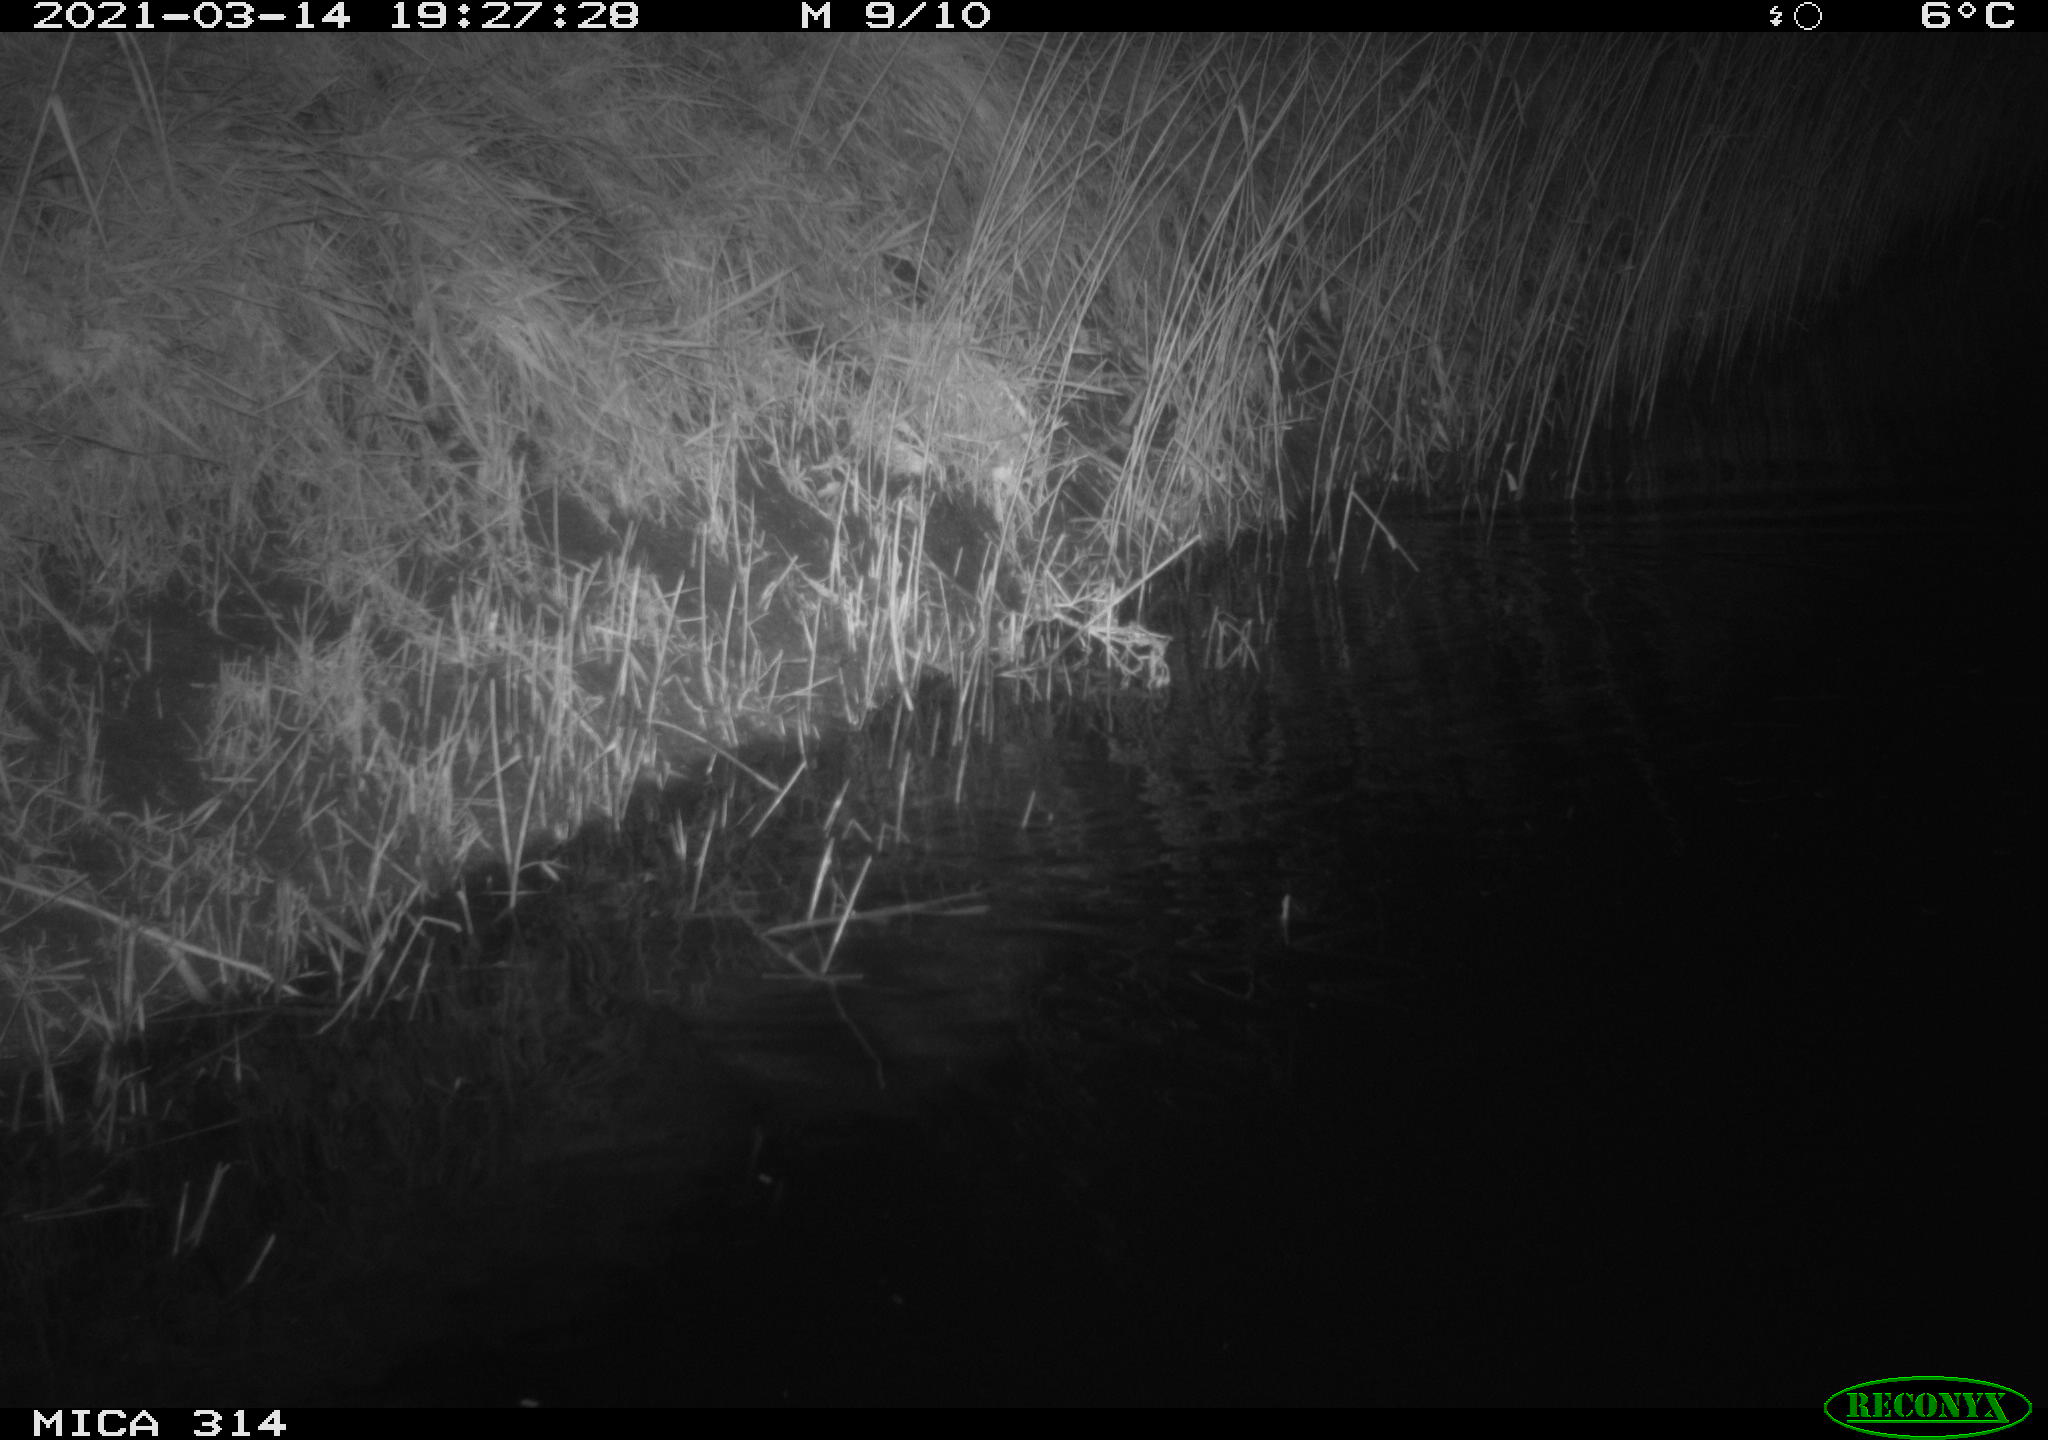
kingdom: Animalia
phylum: Chordata
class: Mammalia
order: Carnivora
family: Mustelidae
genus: Martes
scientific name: Martes
